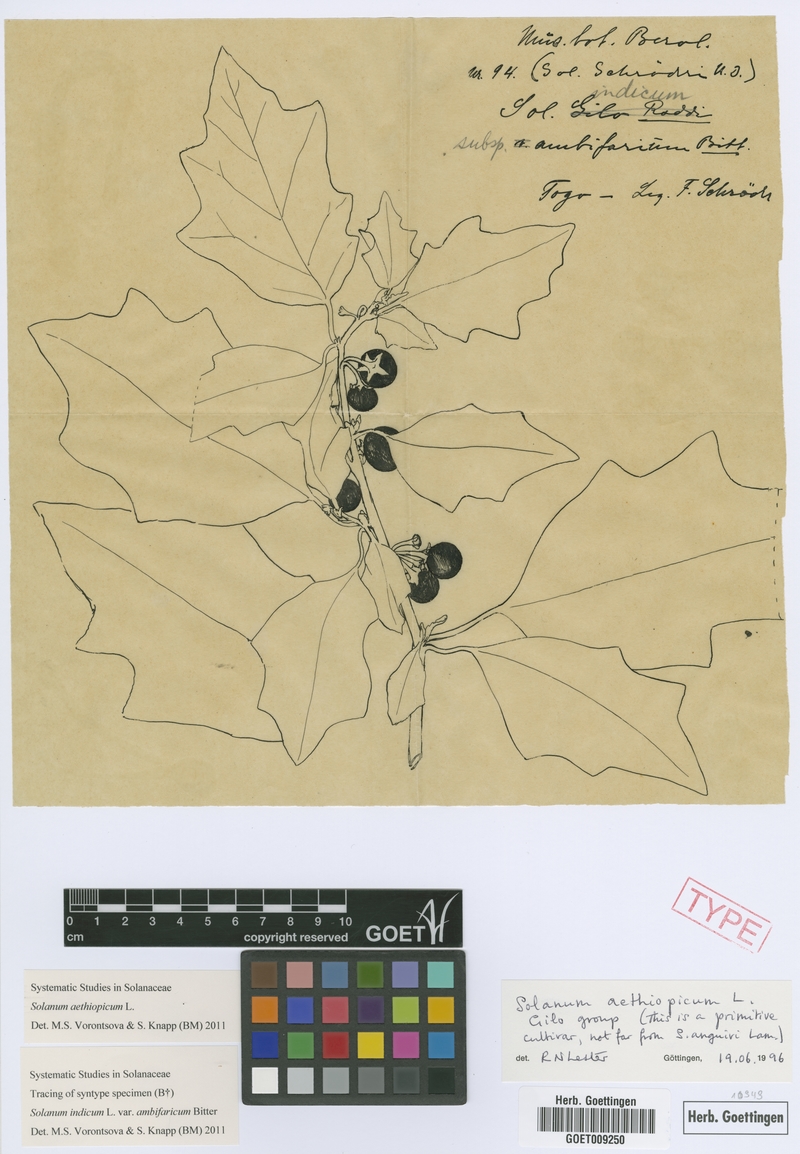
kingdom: Plantae
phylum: Tracheophyta
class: Magnoliopsida
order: Solanales
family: Solanaceae
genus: Solanum
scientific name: Solanum aethiopicum
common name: Gilo
